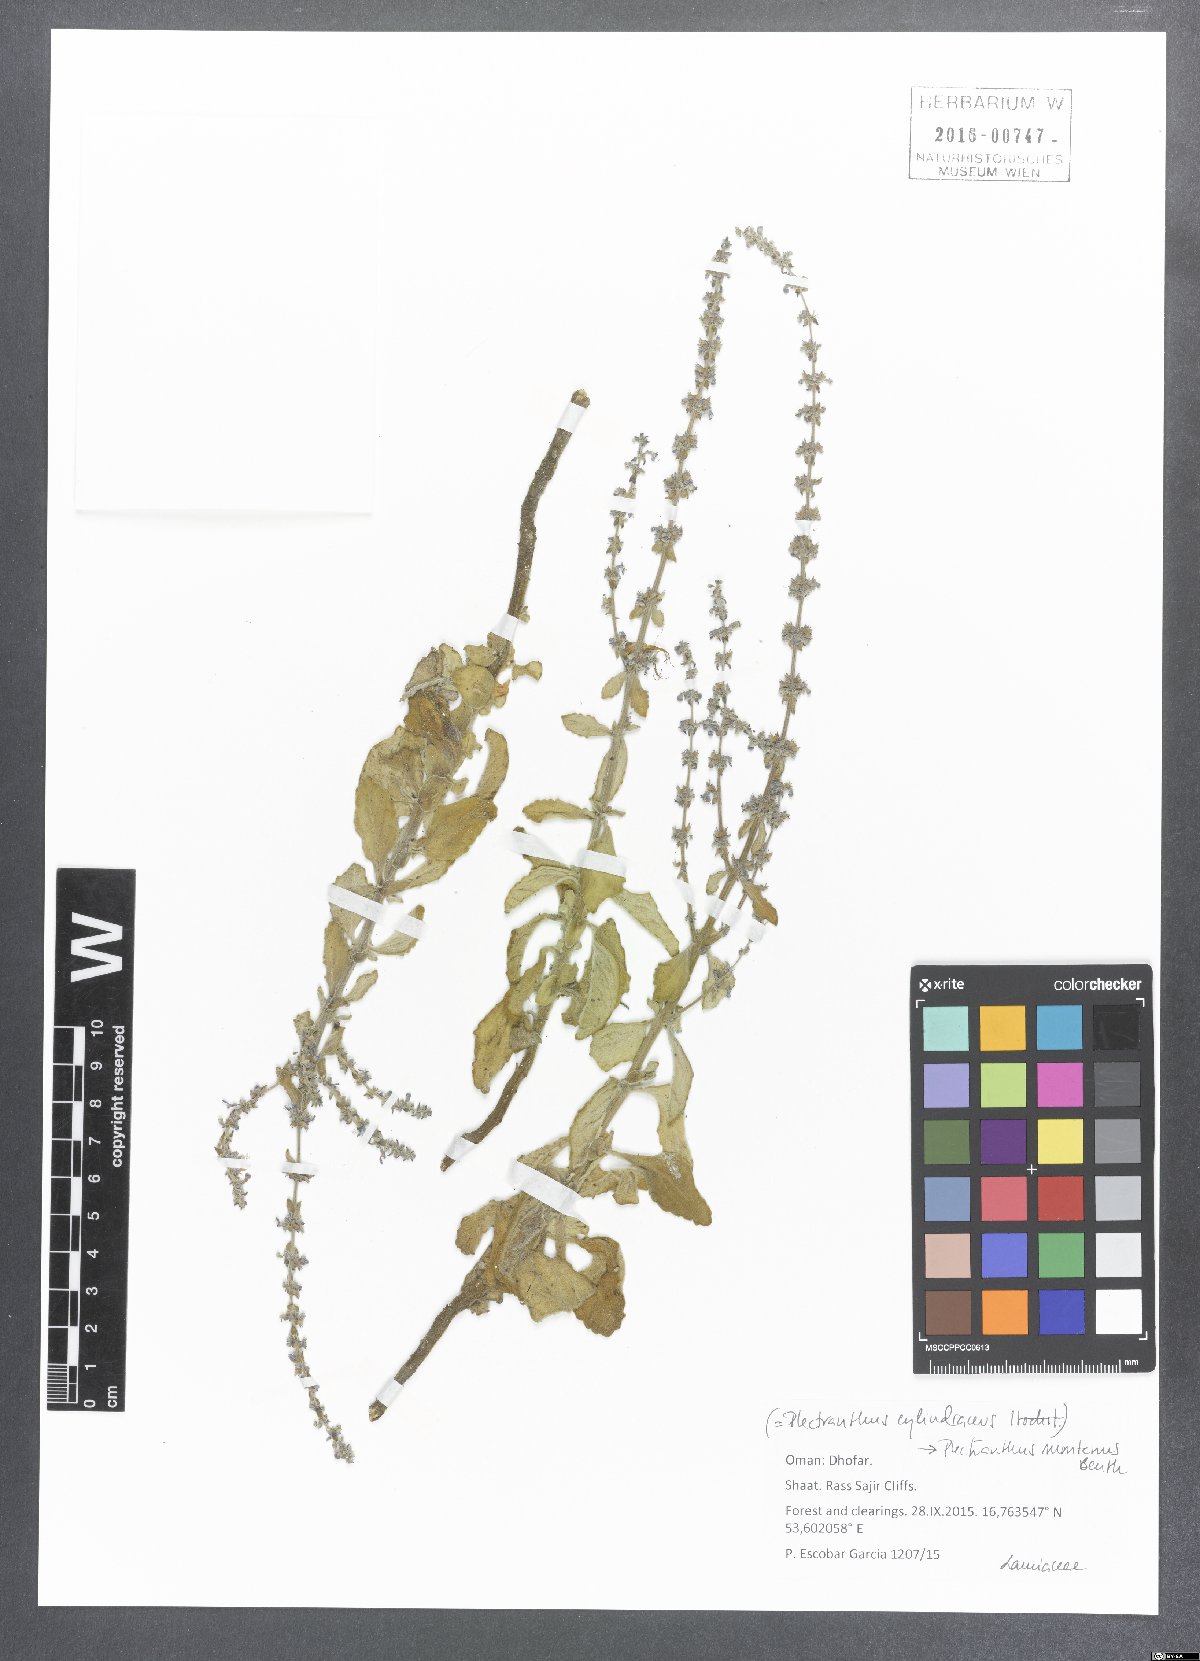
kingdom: Plantae
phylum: Tracheophyta
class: Magnoliopsida
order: Lamiales
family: Lamiaceae
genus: Coleus
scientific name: Coleus cylindraceus
